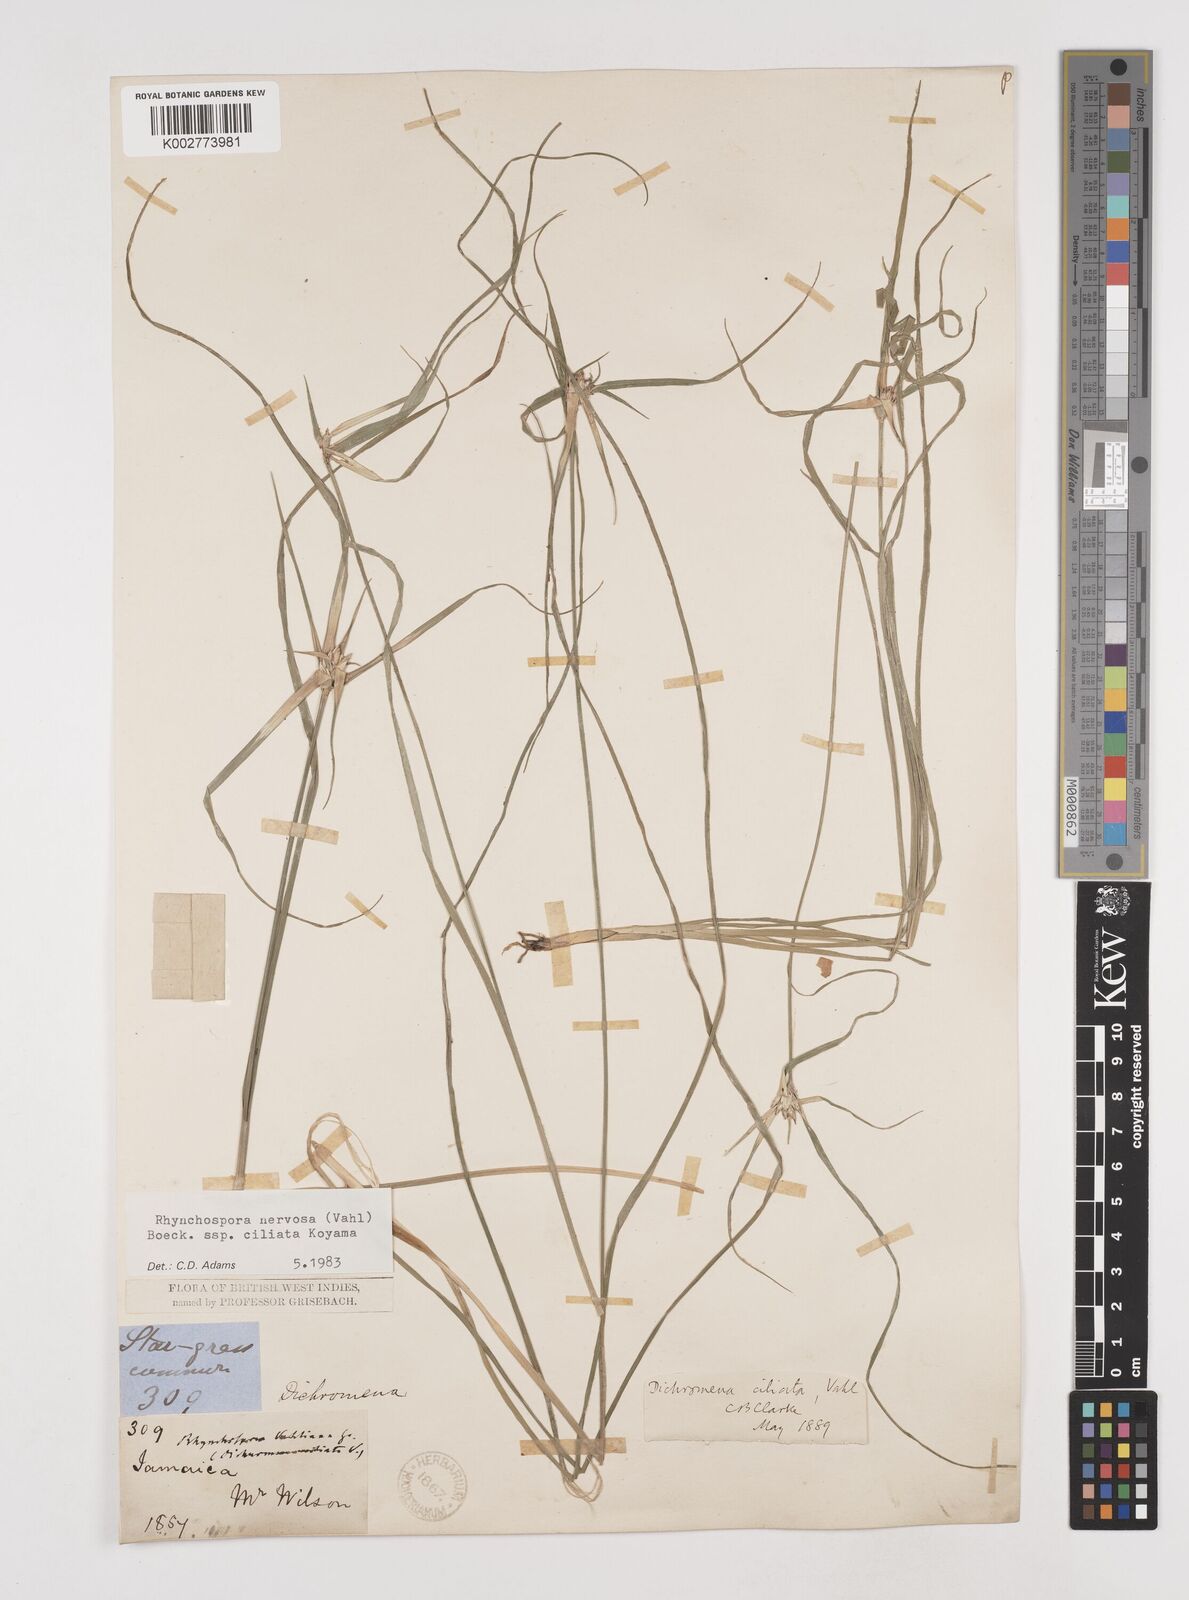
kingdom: Plantae
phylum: Tracheophyta
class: Liliopsida
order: Poales
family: Cyperaceae
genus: Rhynchospora
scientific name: Rhynchospora pura
